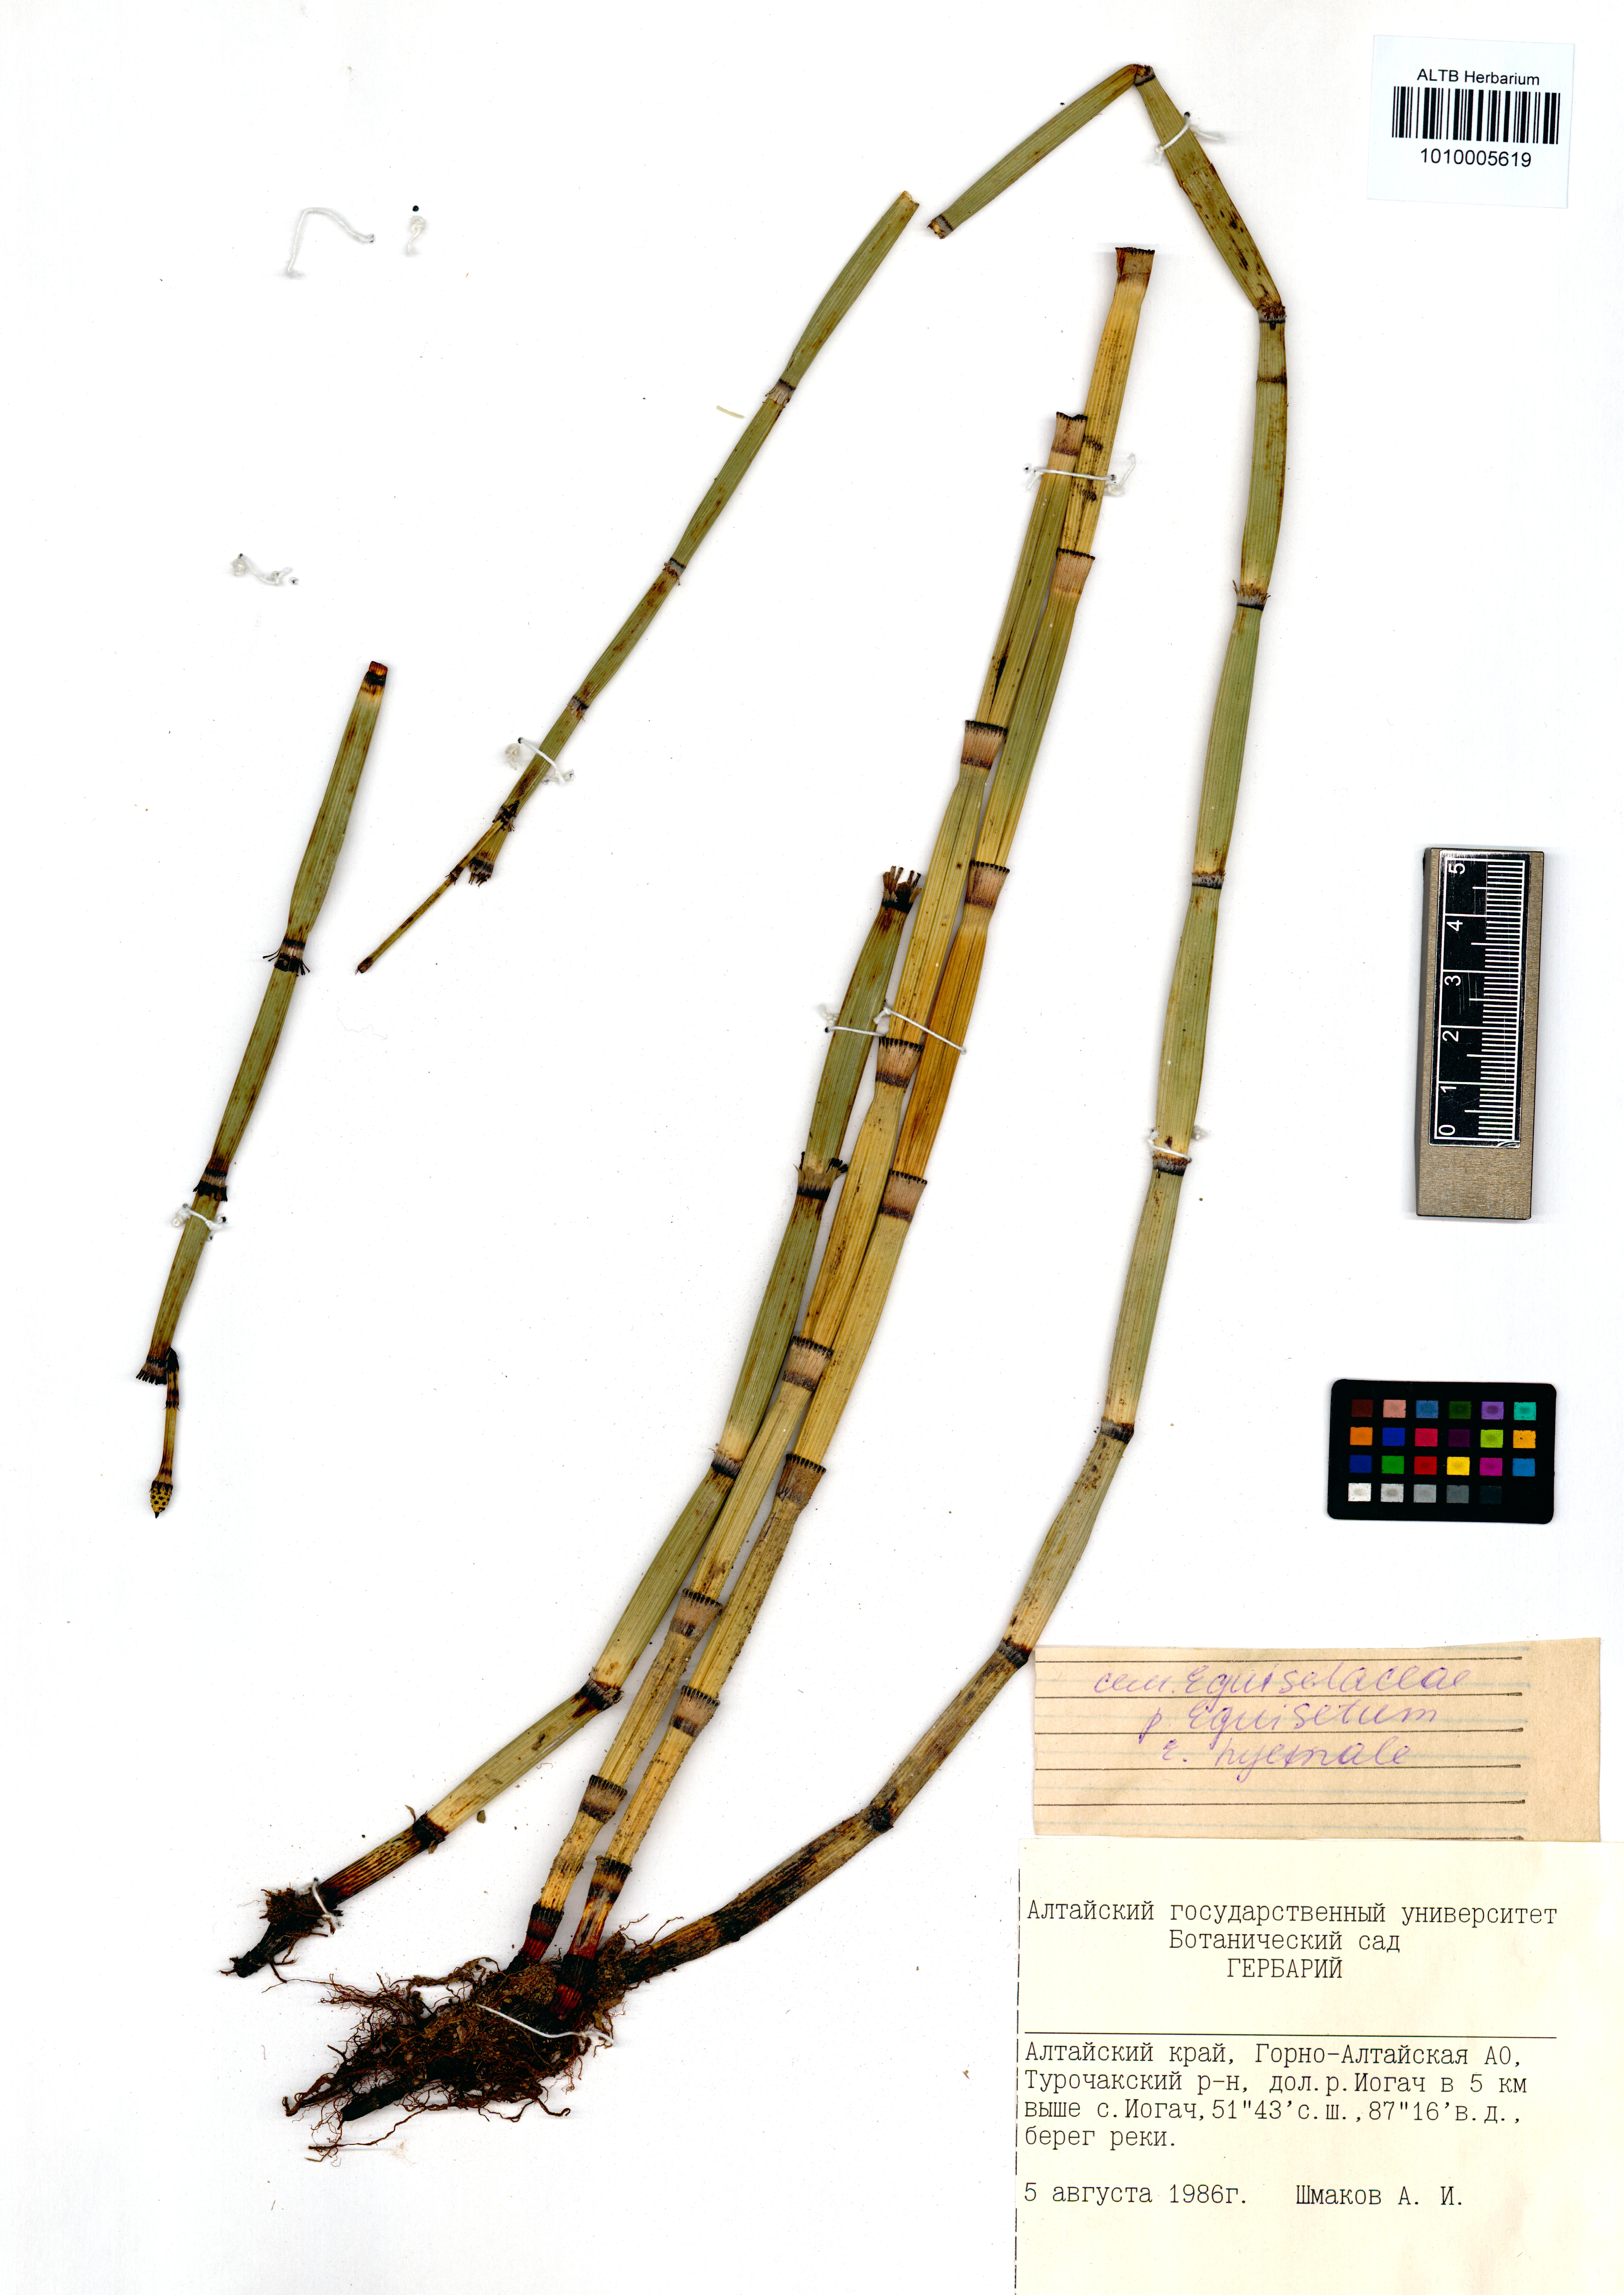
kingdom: Plantae
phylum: Tracheophyta
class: Polypodiopsida
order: Equisetales
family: Equisetaceae
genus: Equisetum
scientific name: Equisetum hyemale
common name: Rough horsetail
